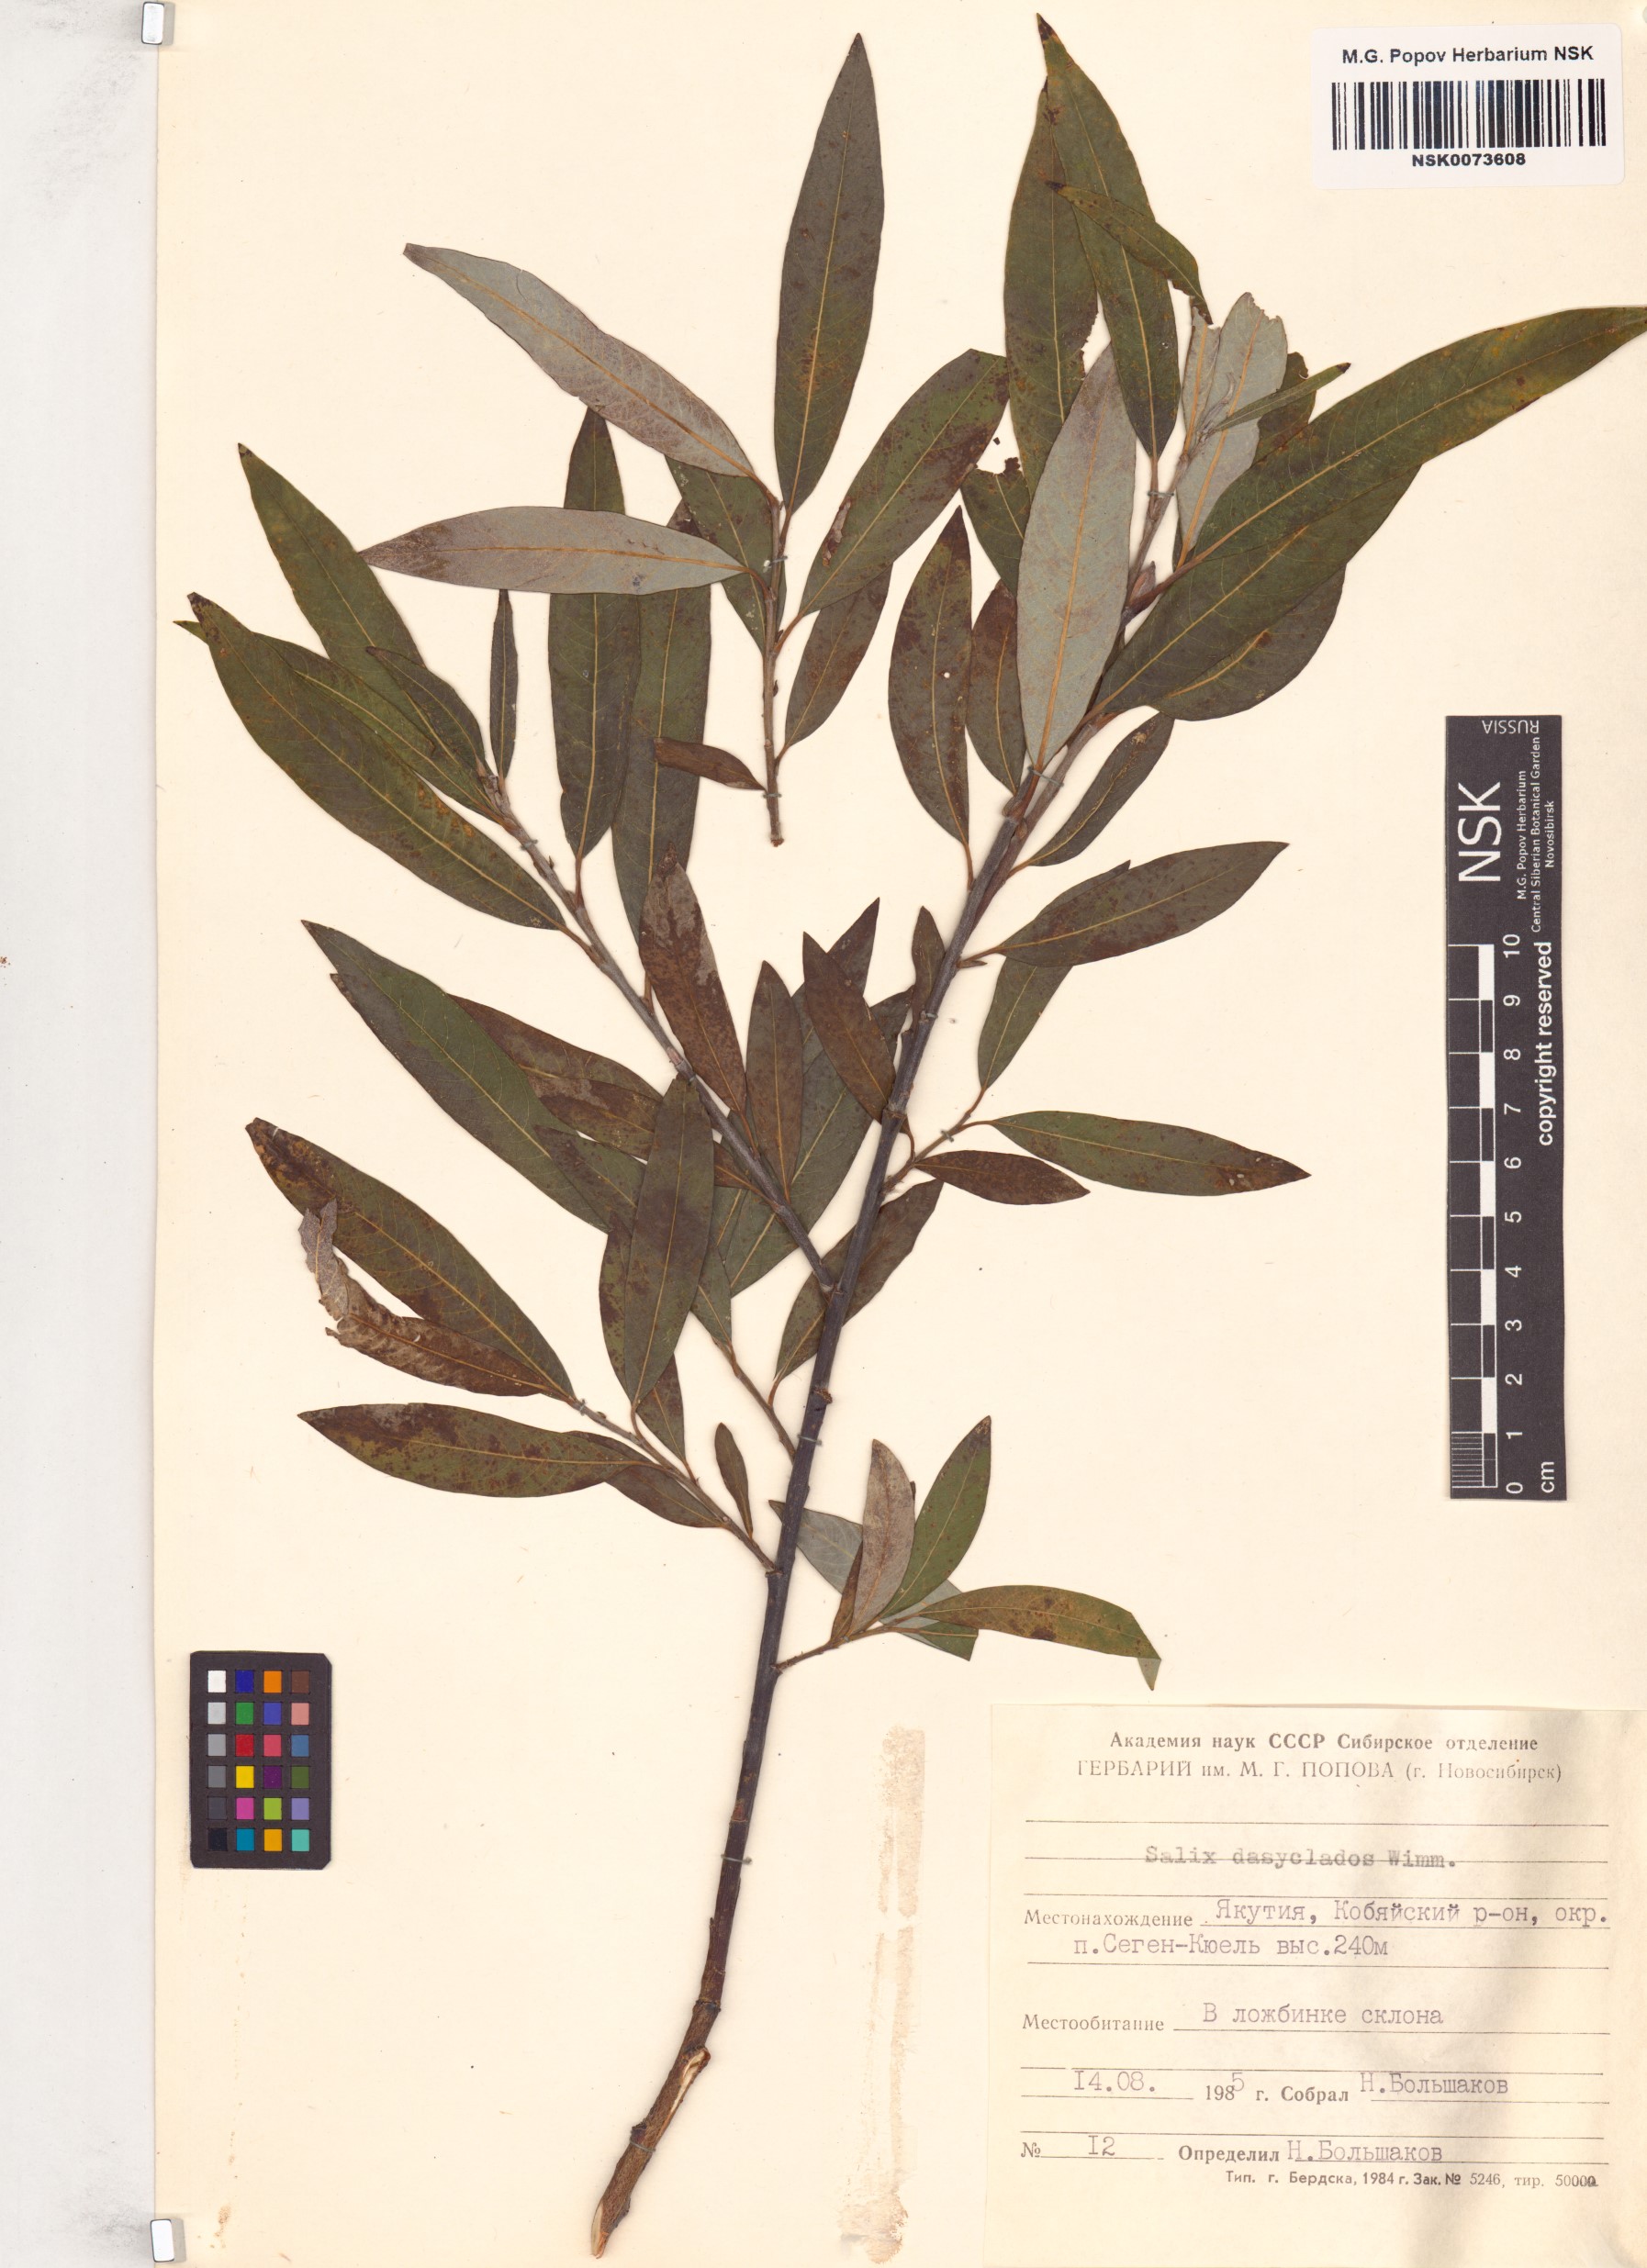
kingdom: Plantae
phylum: Tracheophyta
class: Magnoliopsida
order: Malpighiales
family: Salicaceae
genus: Salix
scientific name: Salix gmelinii
